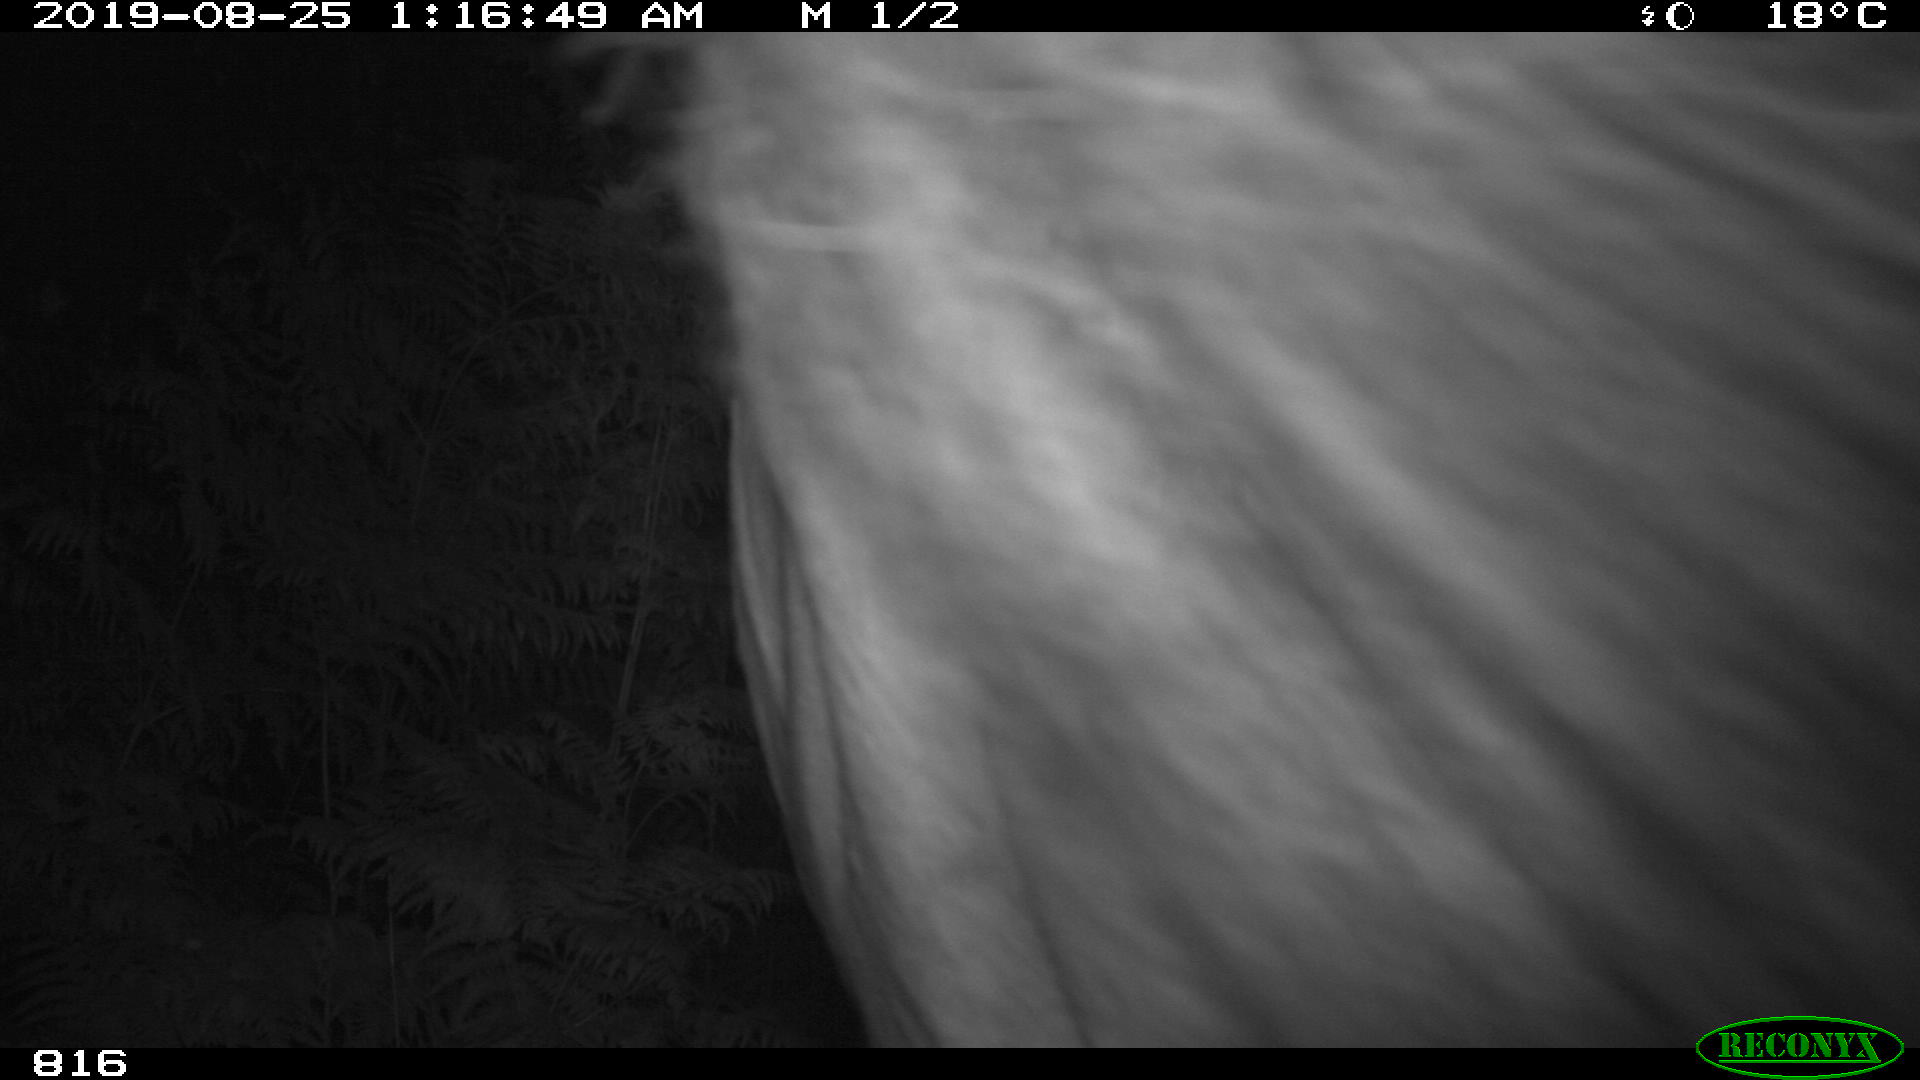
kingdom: Animalia
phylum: Chordata
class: Mammalia
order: Perissodactyla
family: Equidae
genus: Equus
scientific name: Equus caballus
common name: Horse
